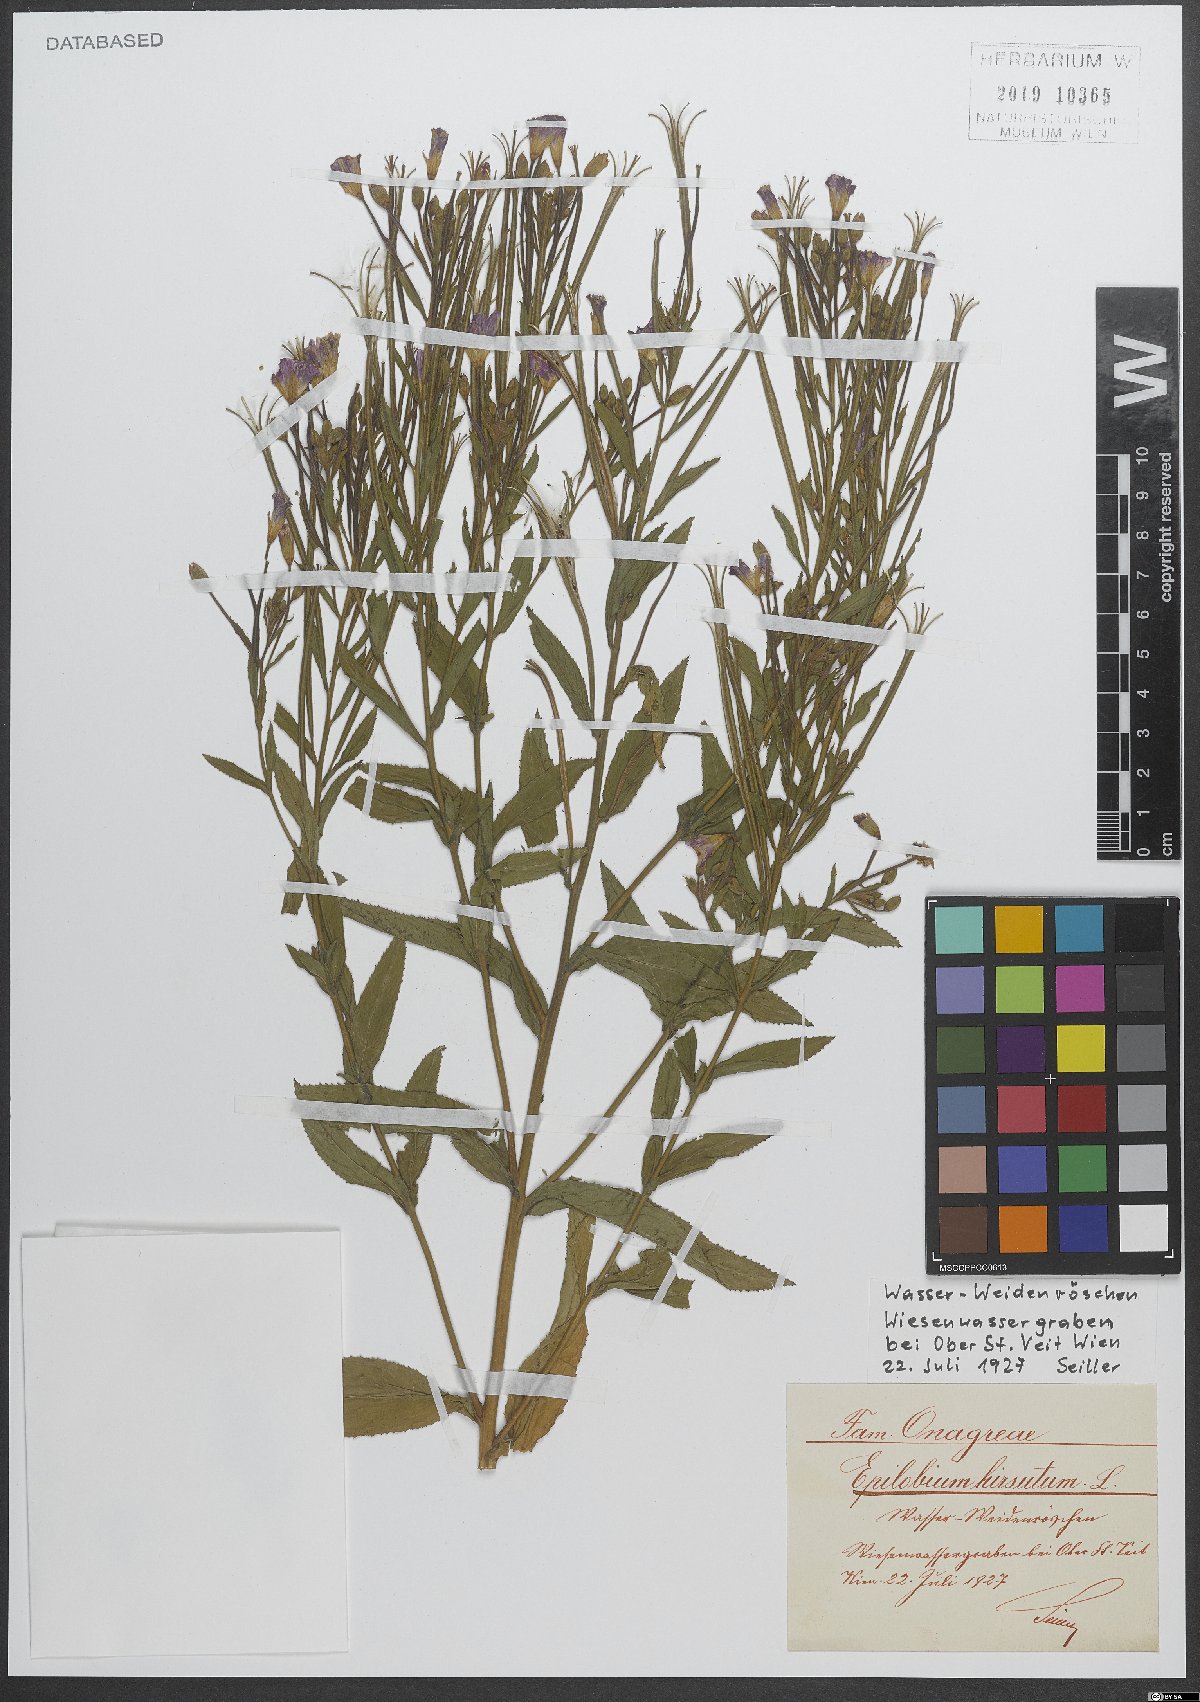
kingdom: Plantae
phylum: Tracheophyta
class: Magnoliopsida
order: Myrtales
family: Onagraceae
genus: Epilobium
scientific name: Epilobium hirsutum
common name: Great willowherb
